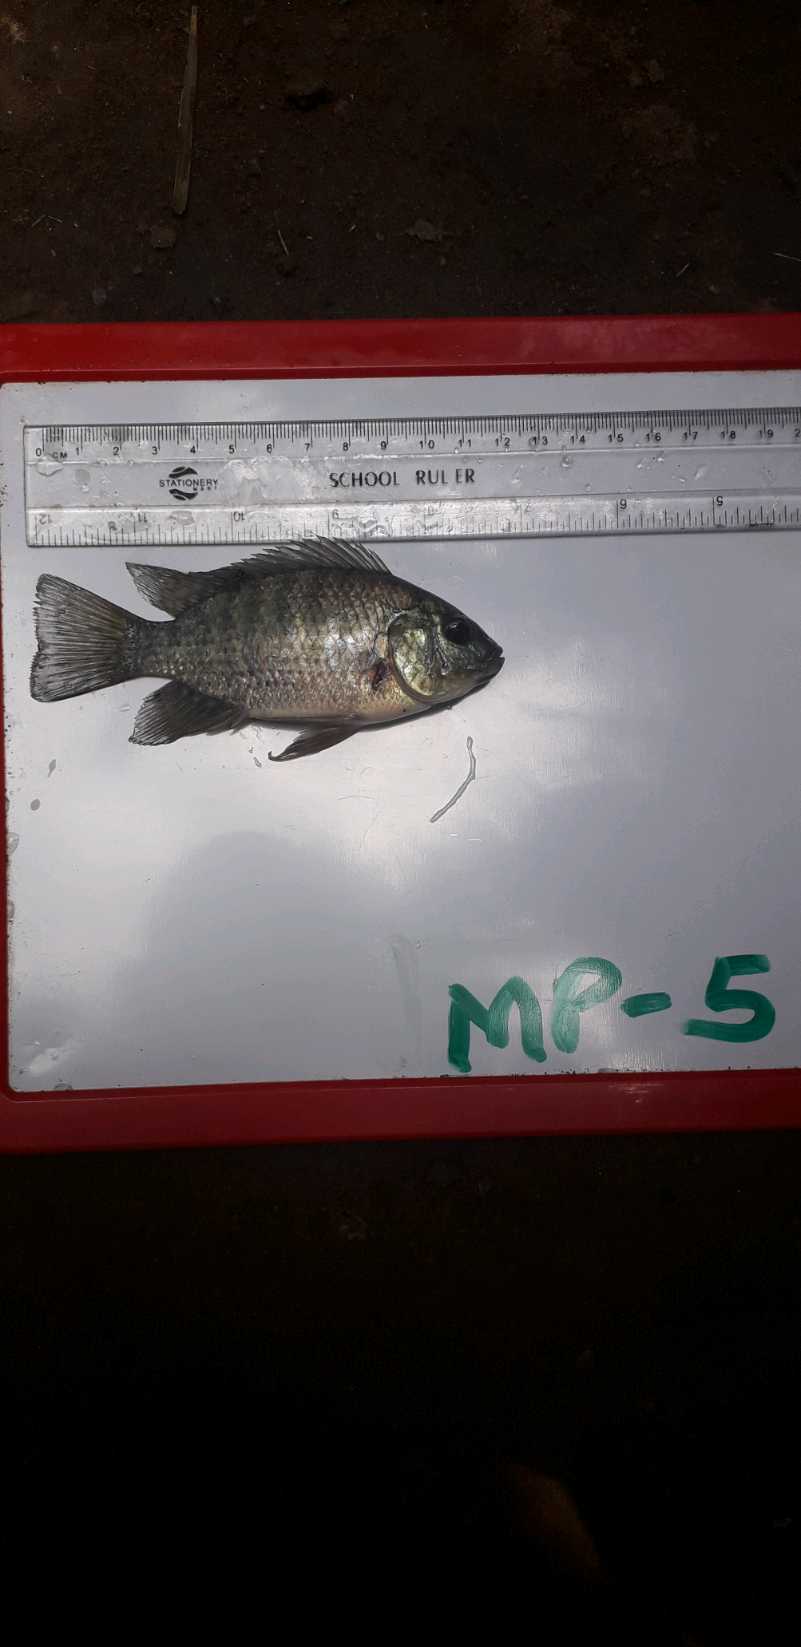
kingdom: Animalia
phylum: Chordata
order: Perciformes
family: Cichlidae
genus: Oreochromis
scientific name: Oreochromis leucostictus
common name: Blue spotted tilapia
